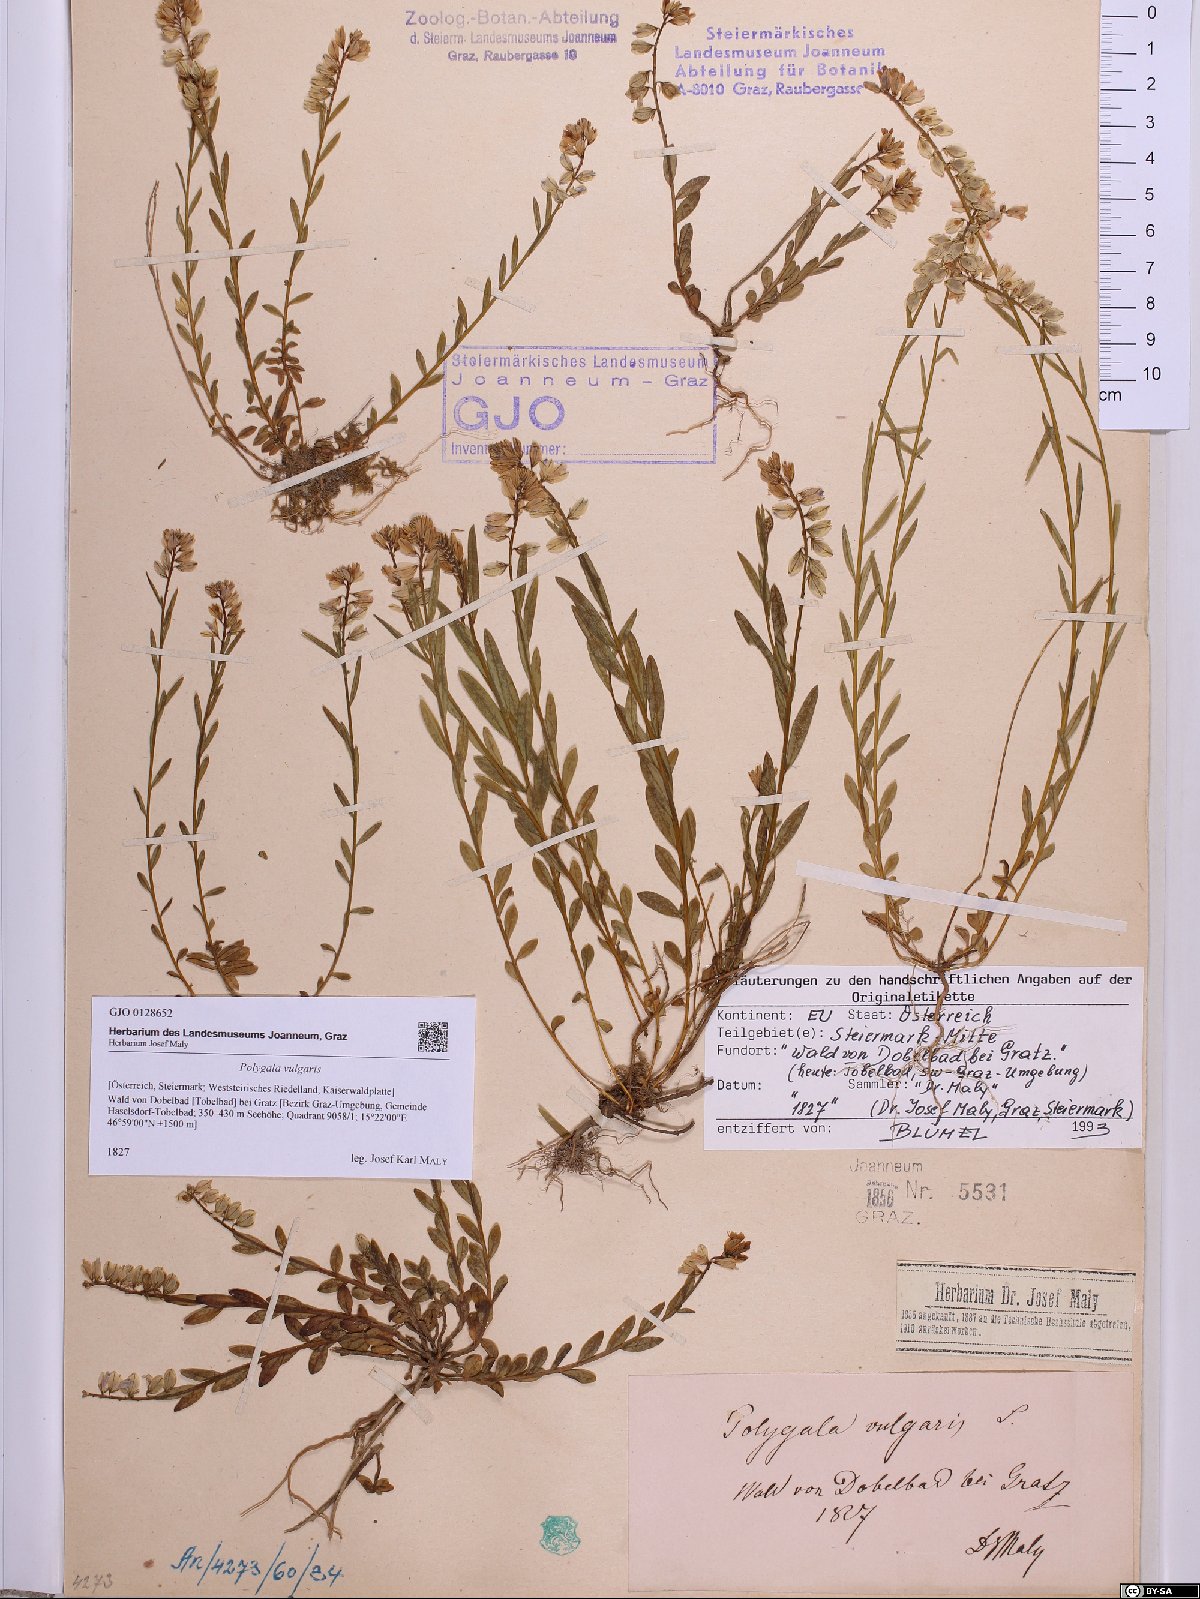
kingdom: Plantae
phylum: Tracheophyta
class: Magnoliopsida
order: Fabales
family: Polygalaceae
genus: Polygala
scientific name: Polygala vulgaris
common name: Common milkwort
